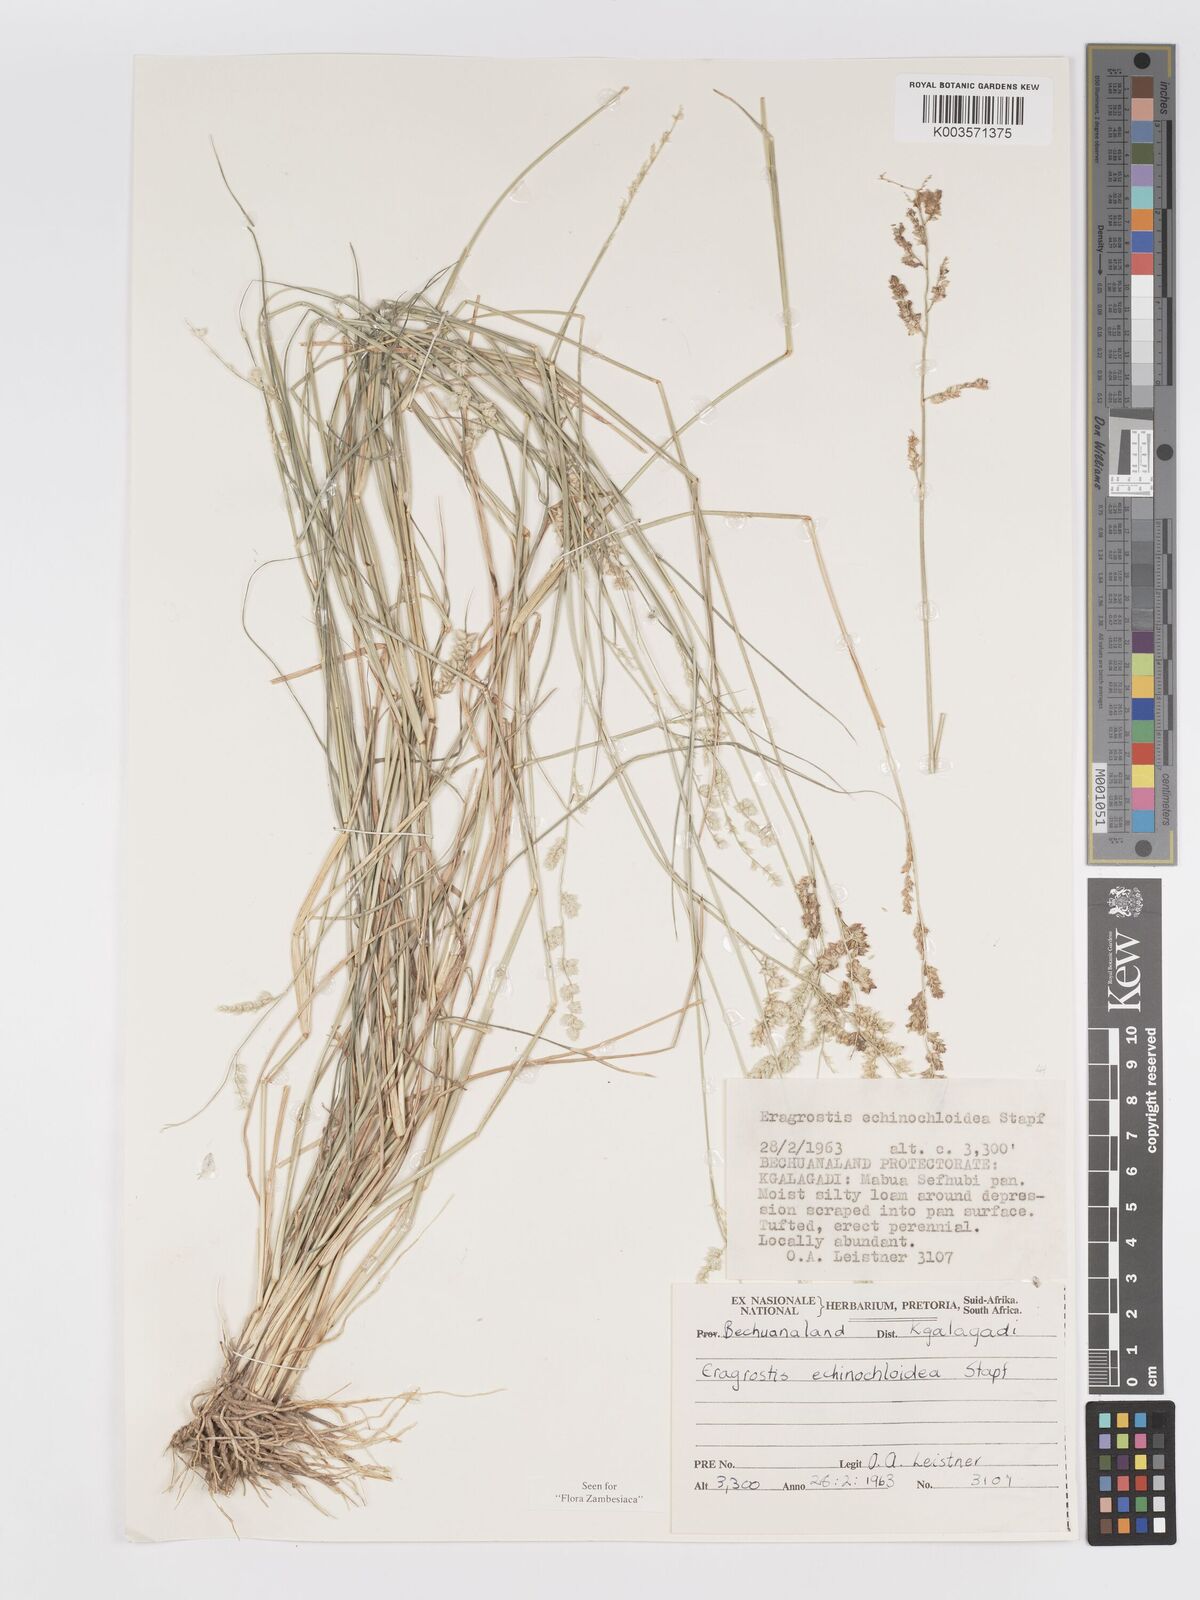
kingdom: Plantae
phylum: Tracheophyta
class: Liliopsida
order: Poales
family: Poaceae
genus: Eragrostis
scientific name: Eragrostis echinochloidea
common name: African lovegrass
